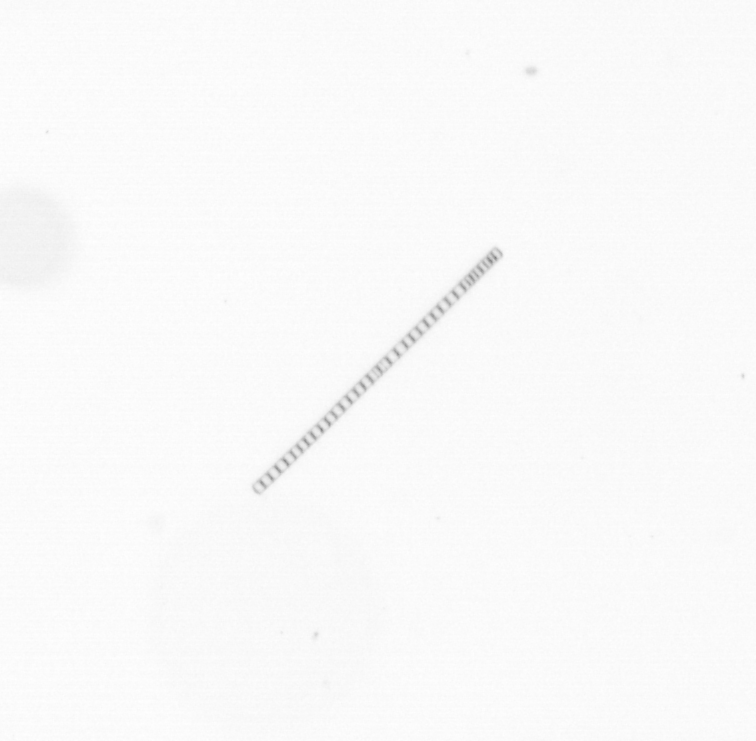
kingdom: Chromista
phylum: Ochrophyta
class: Bacillariophyceae
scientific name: Bacillariophyceae
